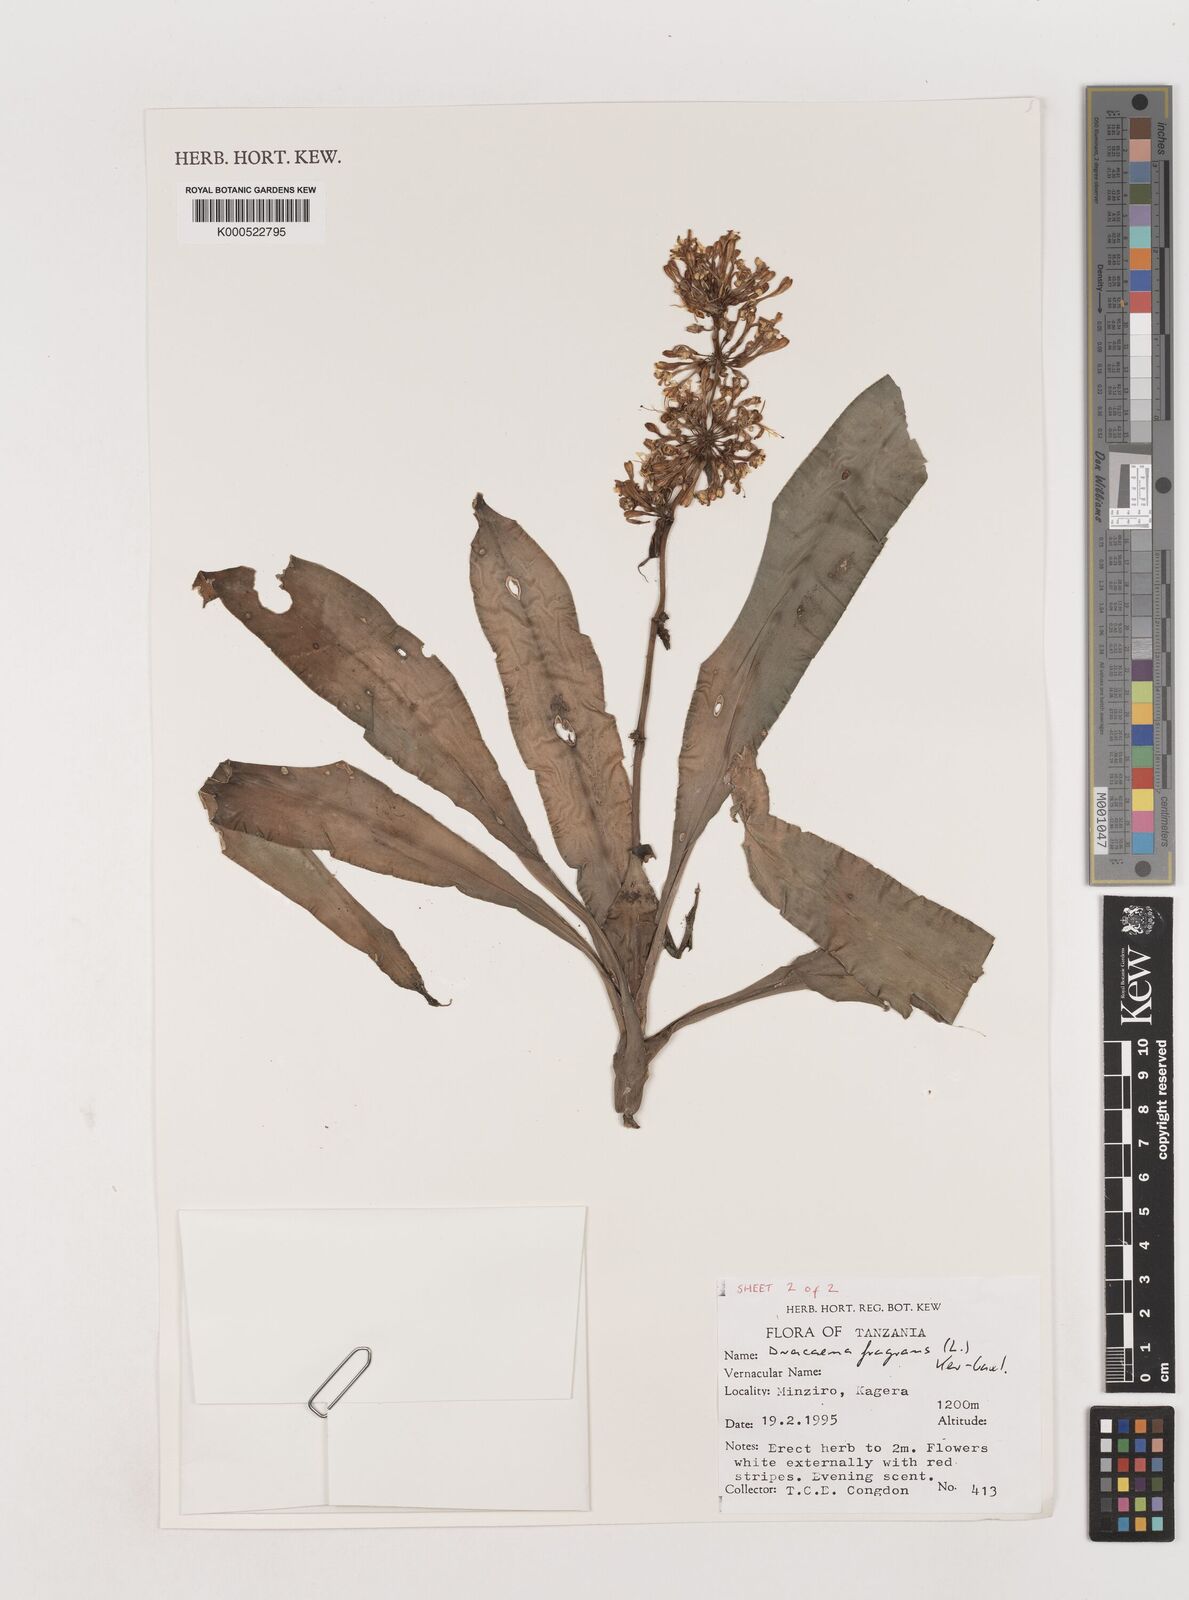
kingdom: Plantae
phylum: Tracheophyta
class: Liliopsida
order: Asparagales
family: Asparagaceae
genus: Dracaena
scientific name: Dracaena fragrans
